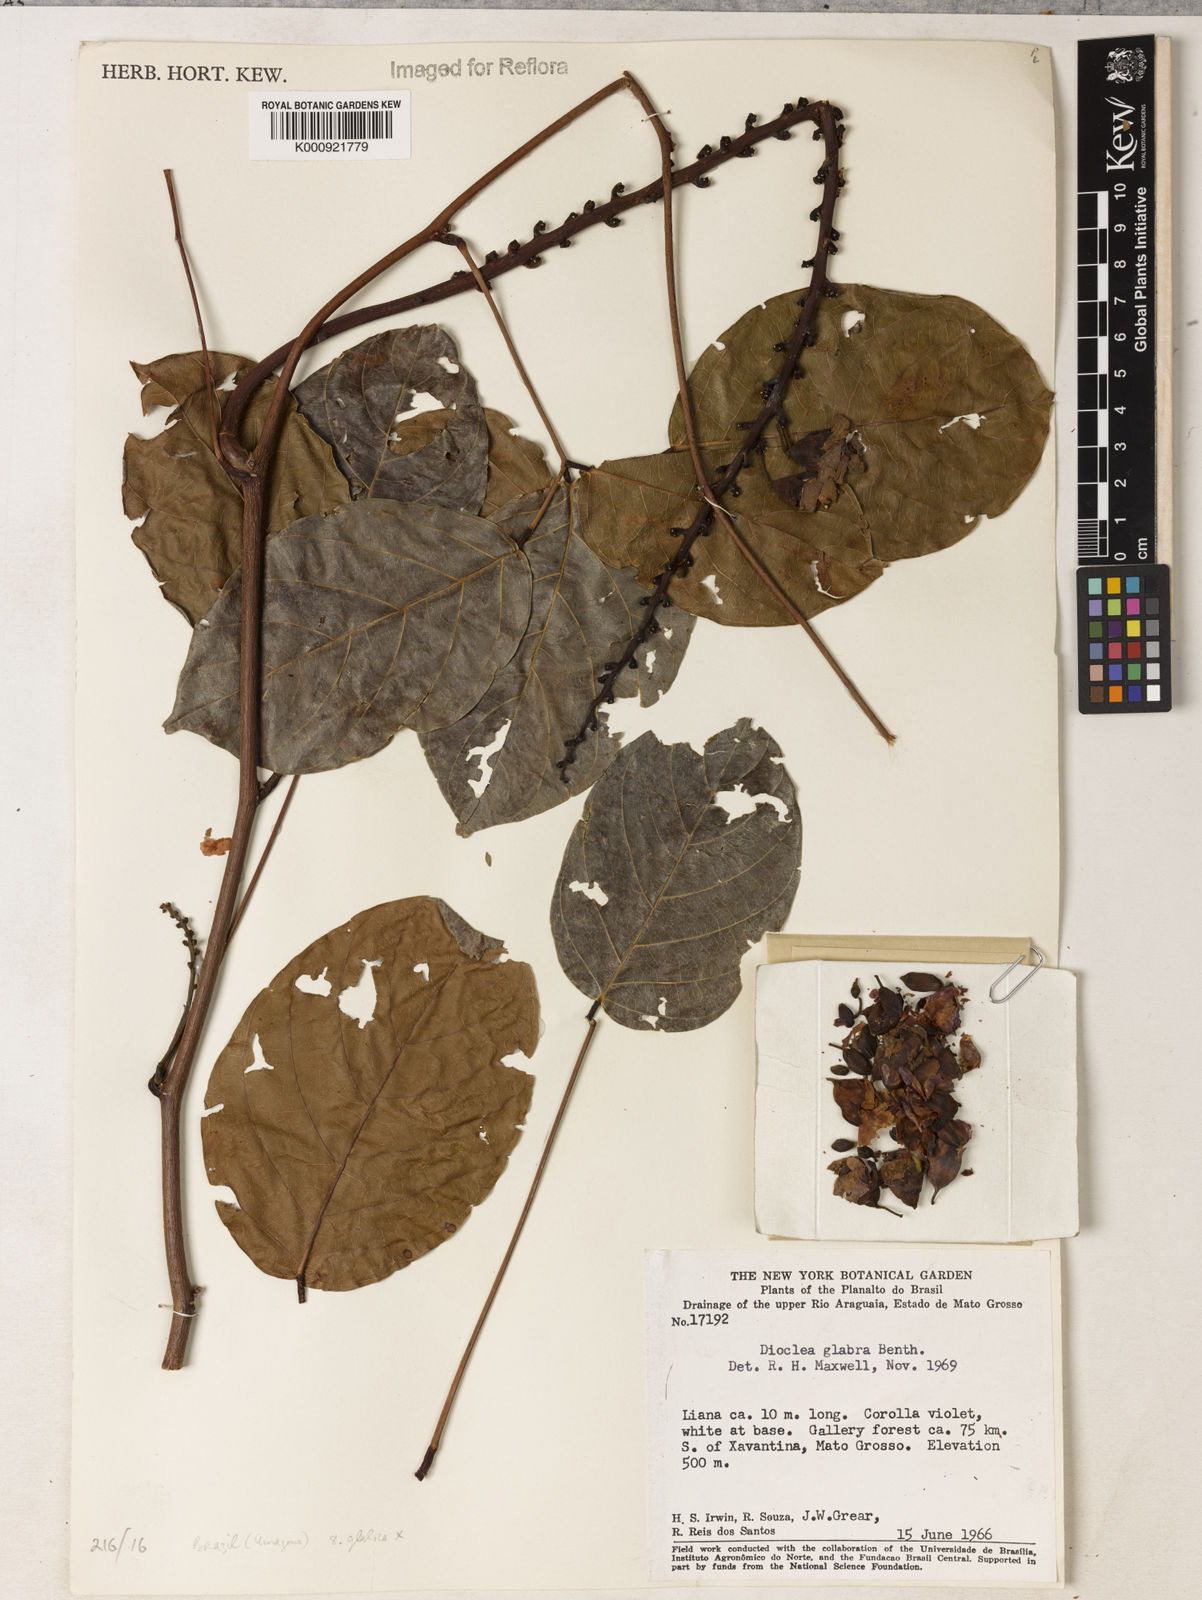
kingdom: Plantae
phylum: Tracheophyta
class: Magnoliopsida
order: Fabales
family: Fabaceae
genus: Macropsychanthus
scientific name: Macropsychanthus glaber
